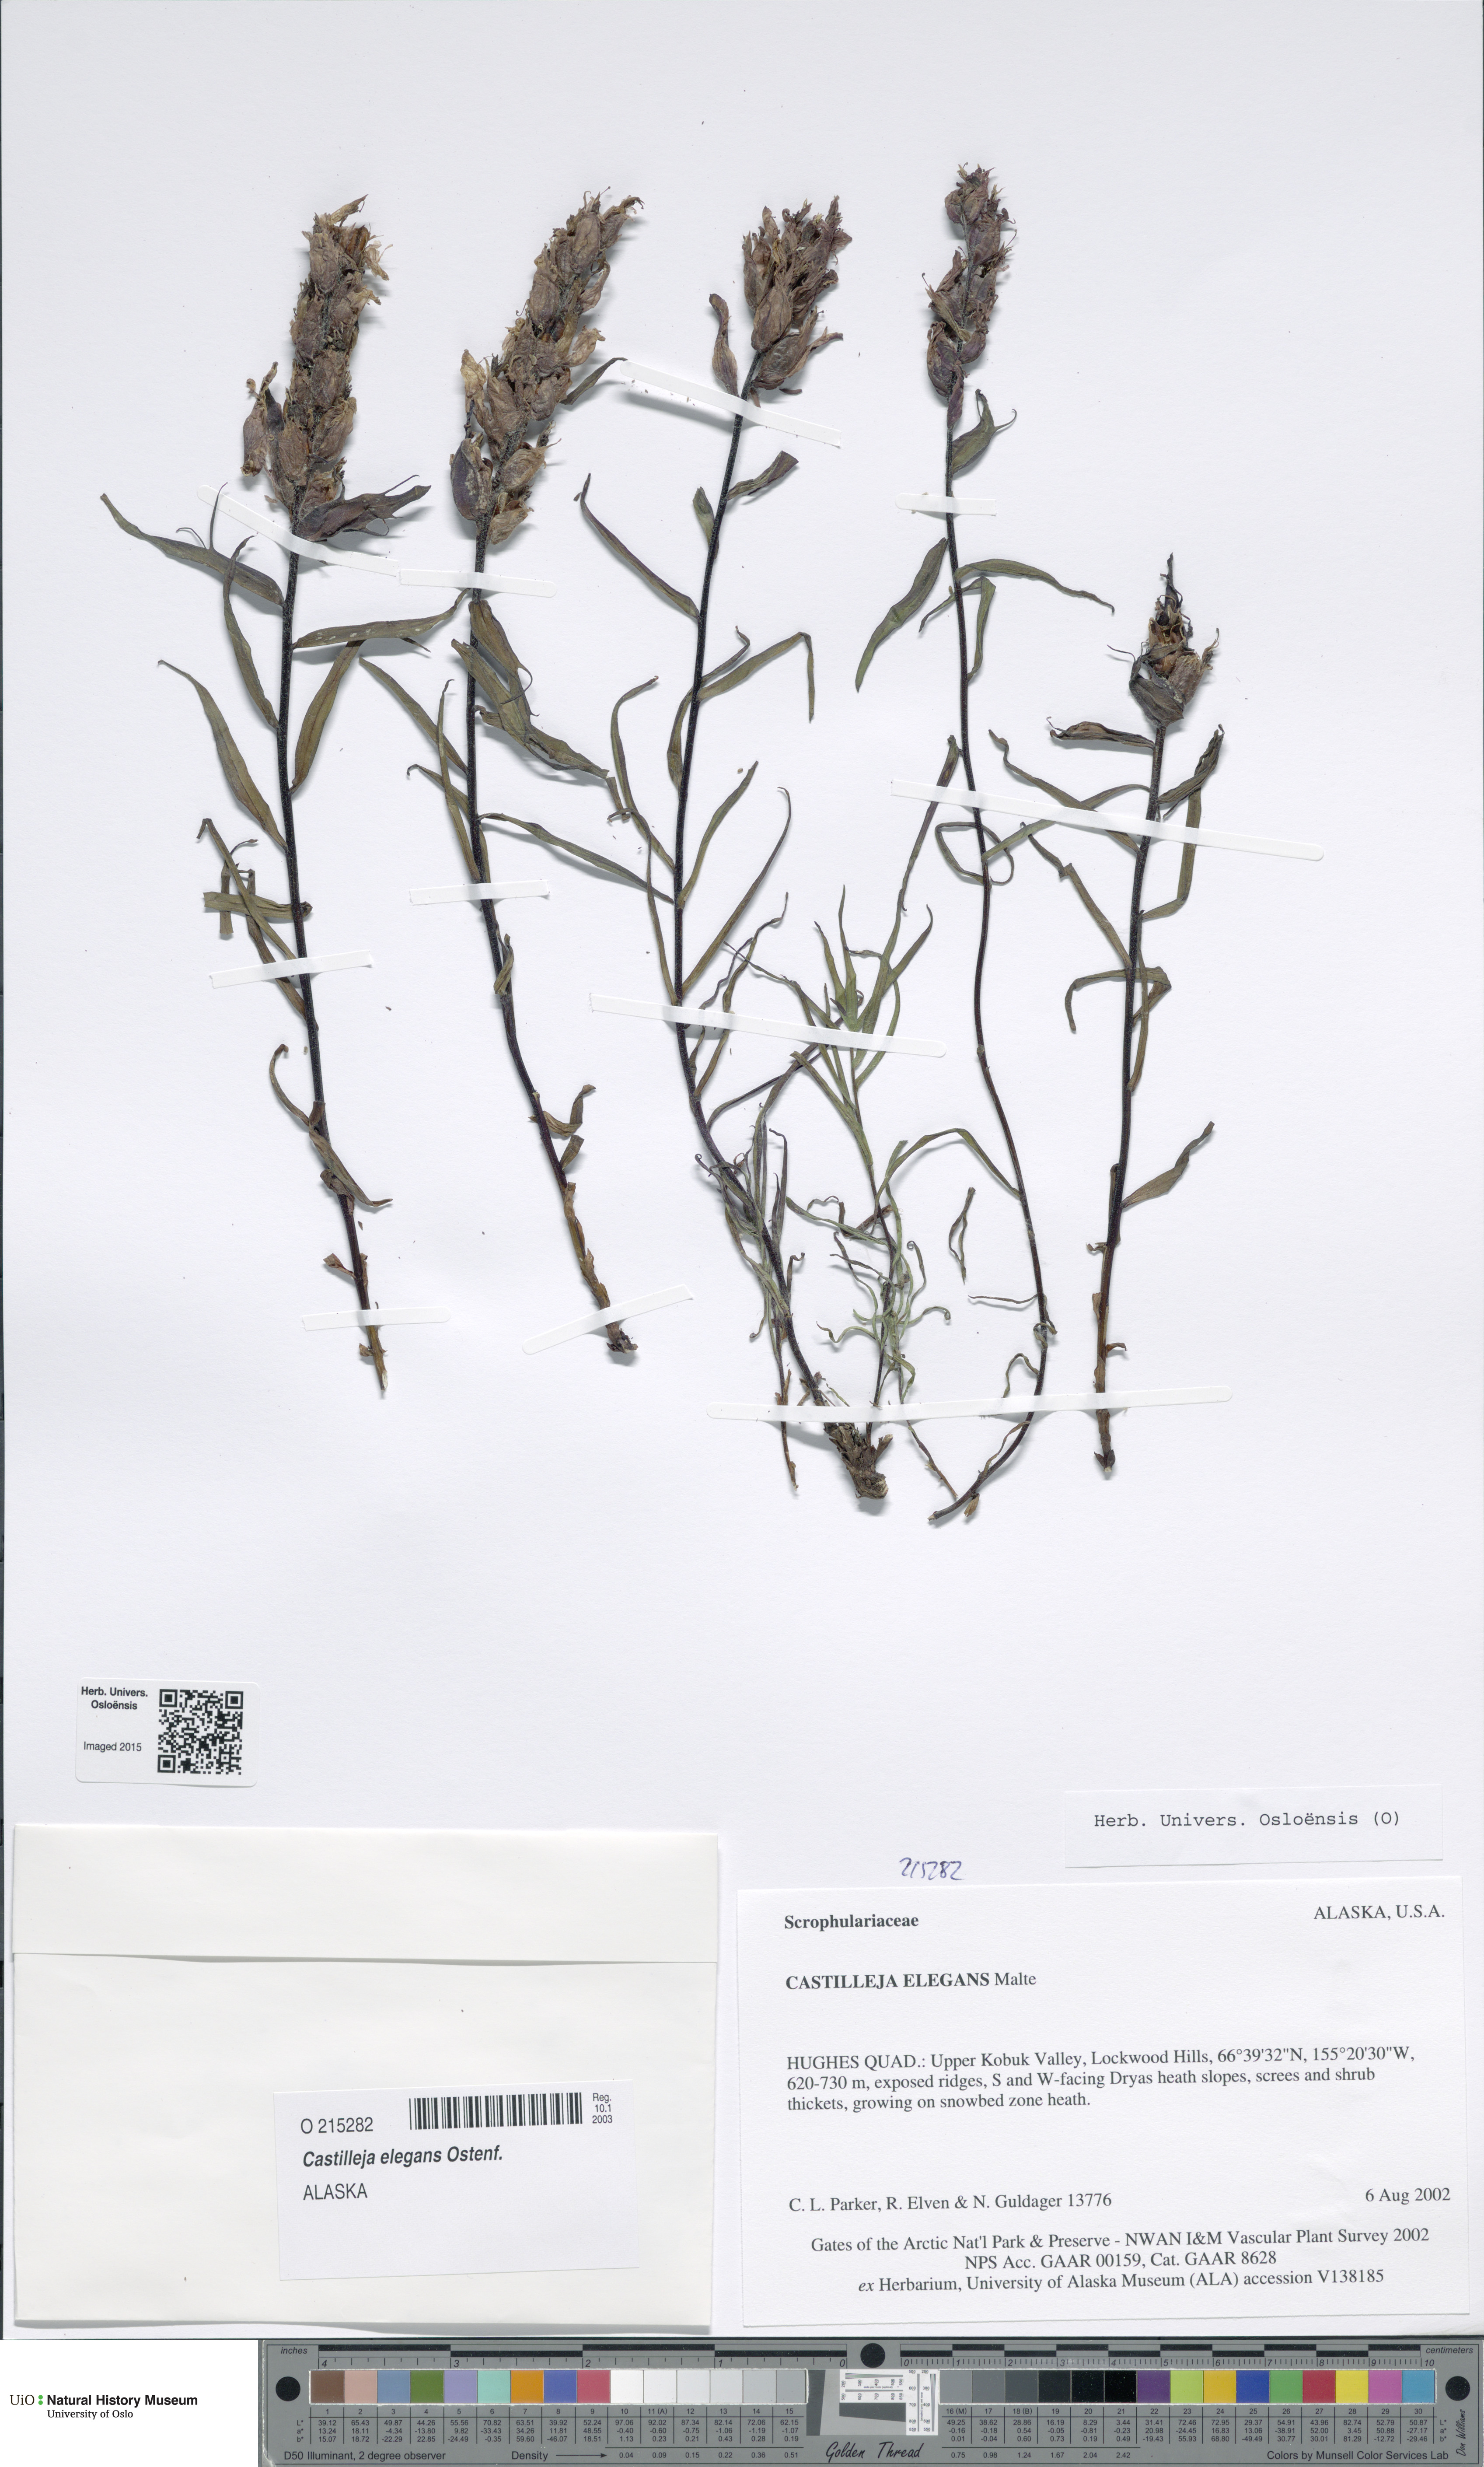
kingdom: Plantae
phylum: Tracheophyta
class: Magnoliopsida
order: Lamiales
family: Orobanchaceae
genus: Castilleja
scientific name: Castilleja elegans
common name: Elegant paintbrush
